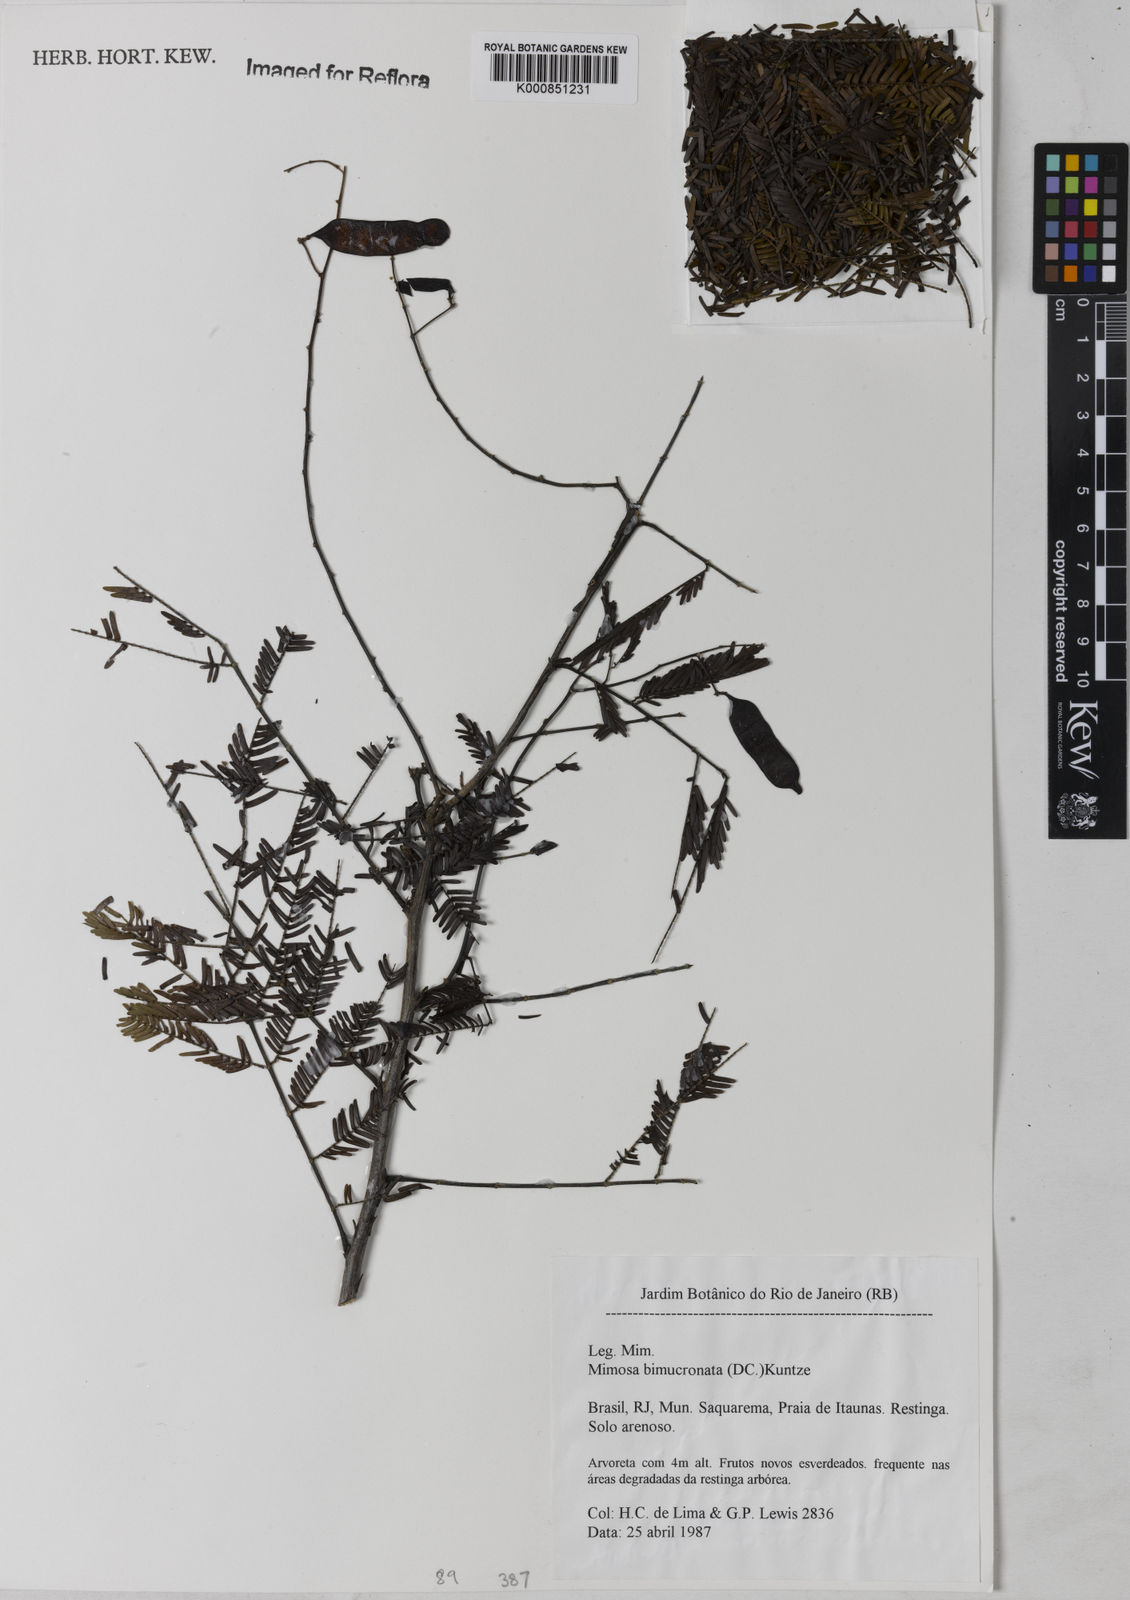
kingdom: Plantae
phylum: Tracheophyta
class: Magnoliopsida
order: Fabales
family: Fabaceae
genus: Mimosa
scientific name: Mimosa bimucronata
